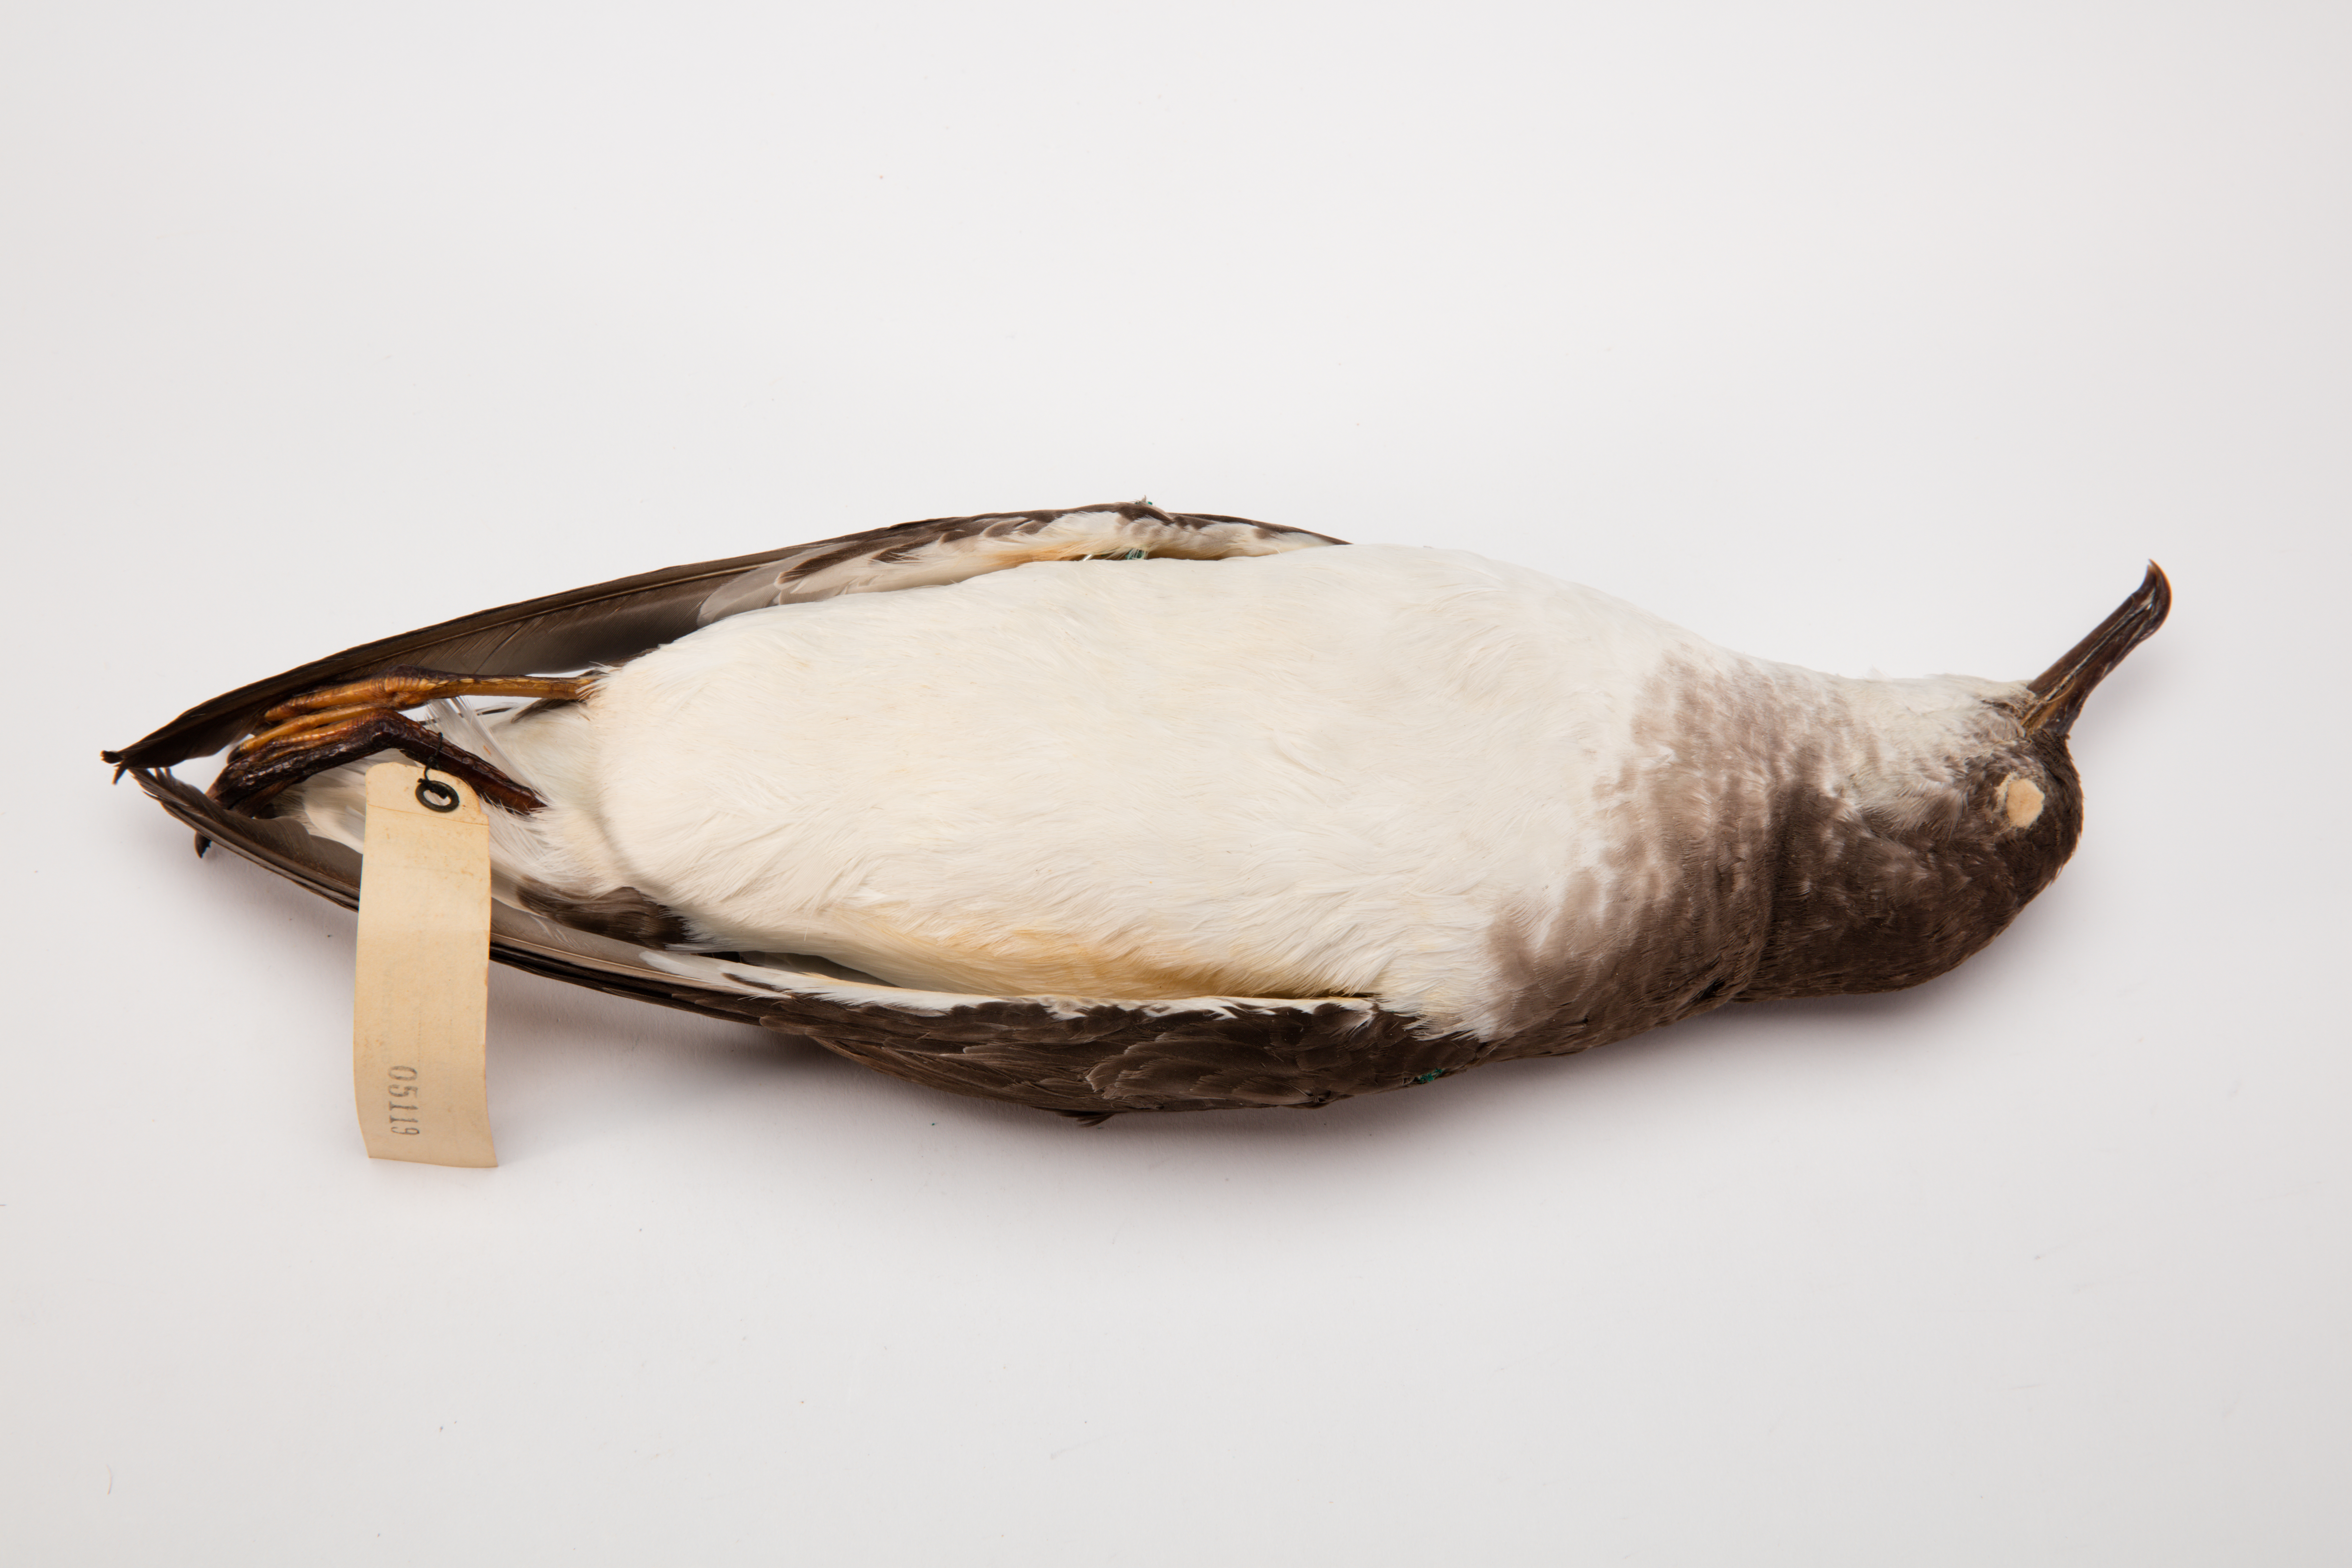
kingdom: Animalia
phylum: Chordata
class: Aves
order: Procellariiformes
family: Procellariidae
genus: Ardenna
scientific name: Ardenna
